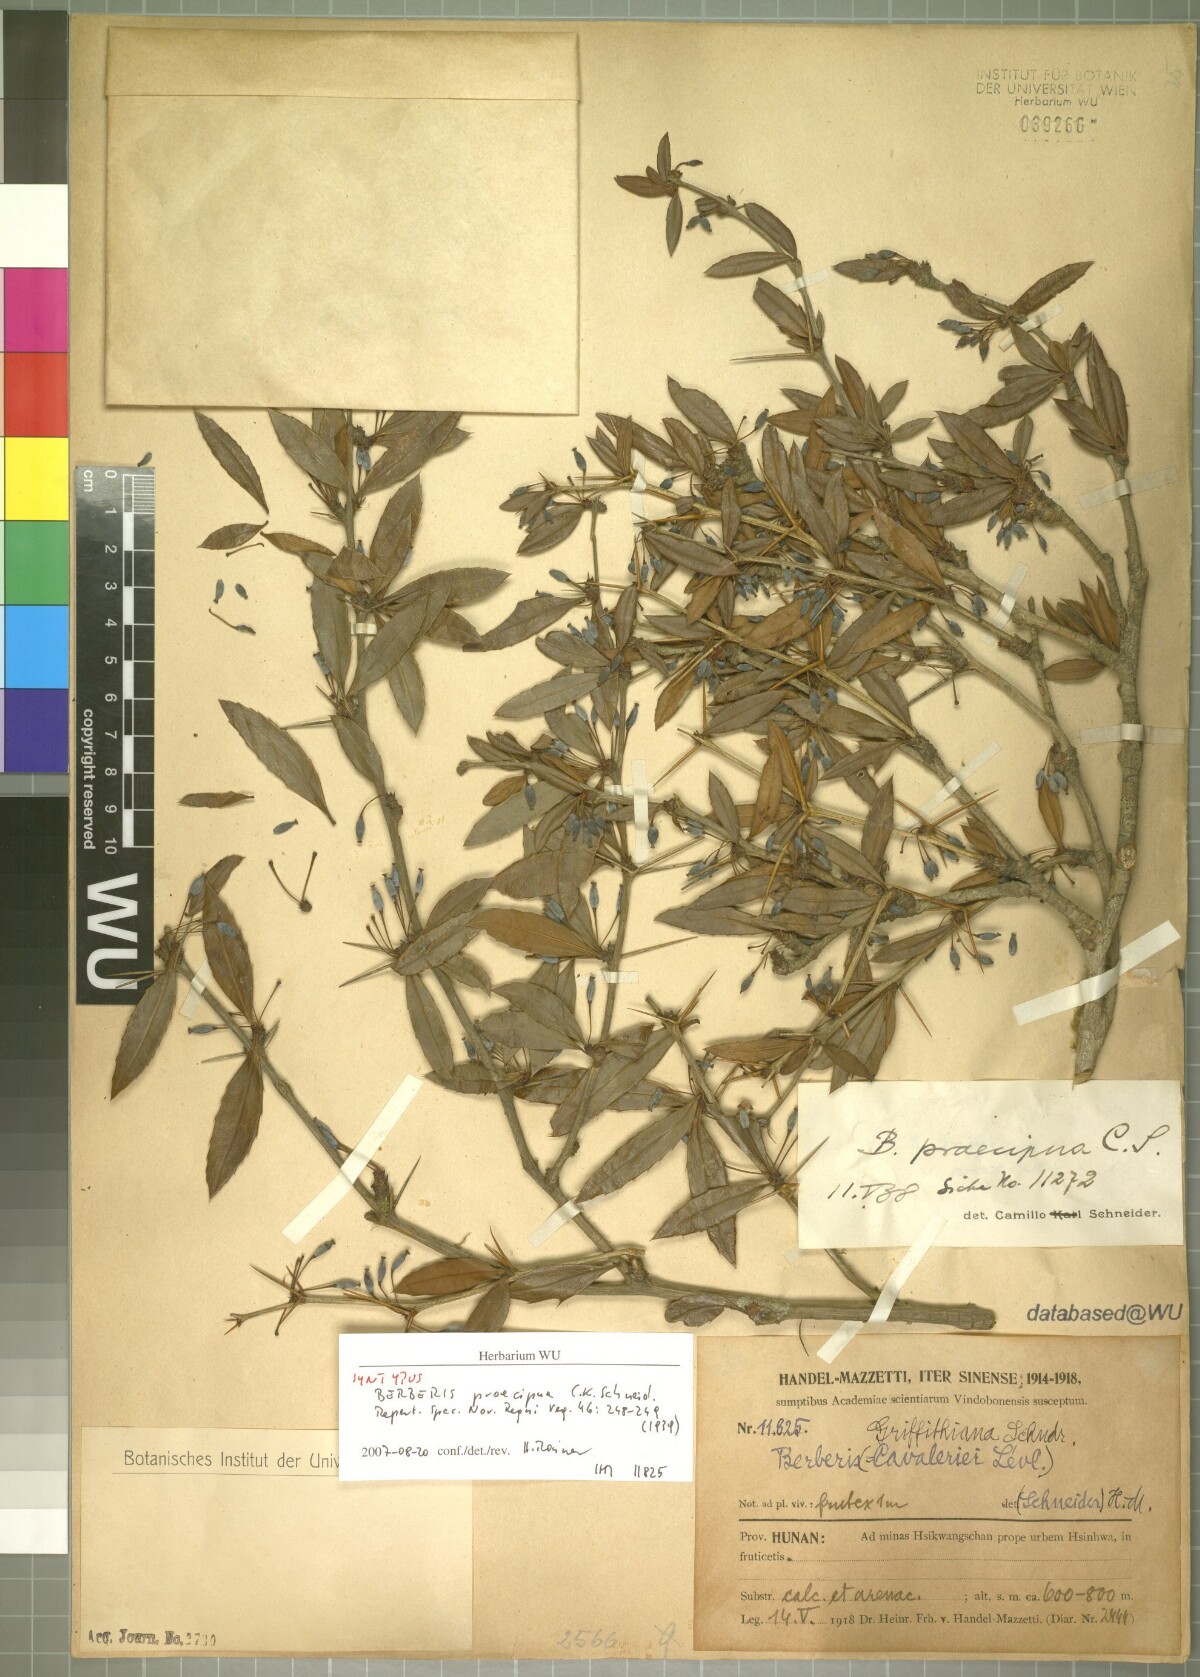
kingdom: Plantae
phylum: Tracheophyta
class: Magnoliopsida
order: Ranunculales
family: Berberidaceae
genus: Berberis
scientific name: Berberis praecipua
